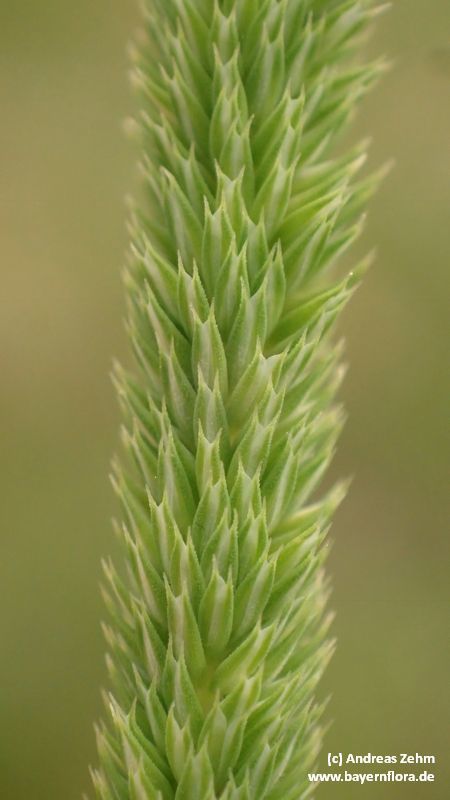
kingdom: Plantae
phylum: Tracheophyta
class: Liliopsida
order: Poales
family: Poaceae
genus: Phleum
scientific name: Phleum phleoides
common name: Purple-stem cat's-tail
